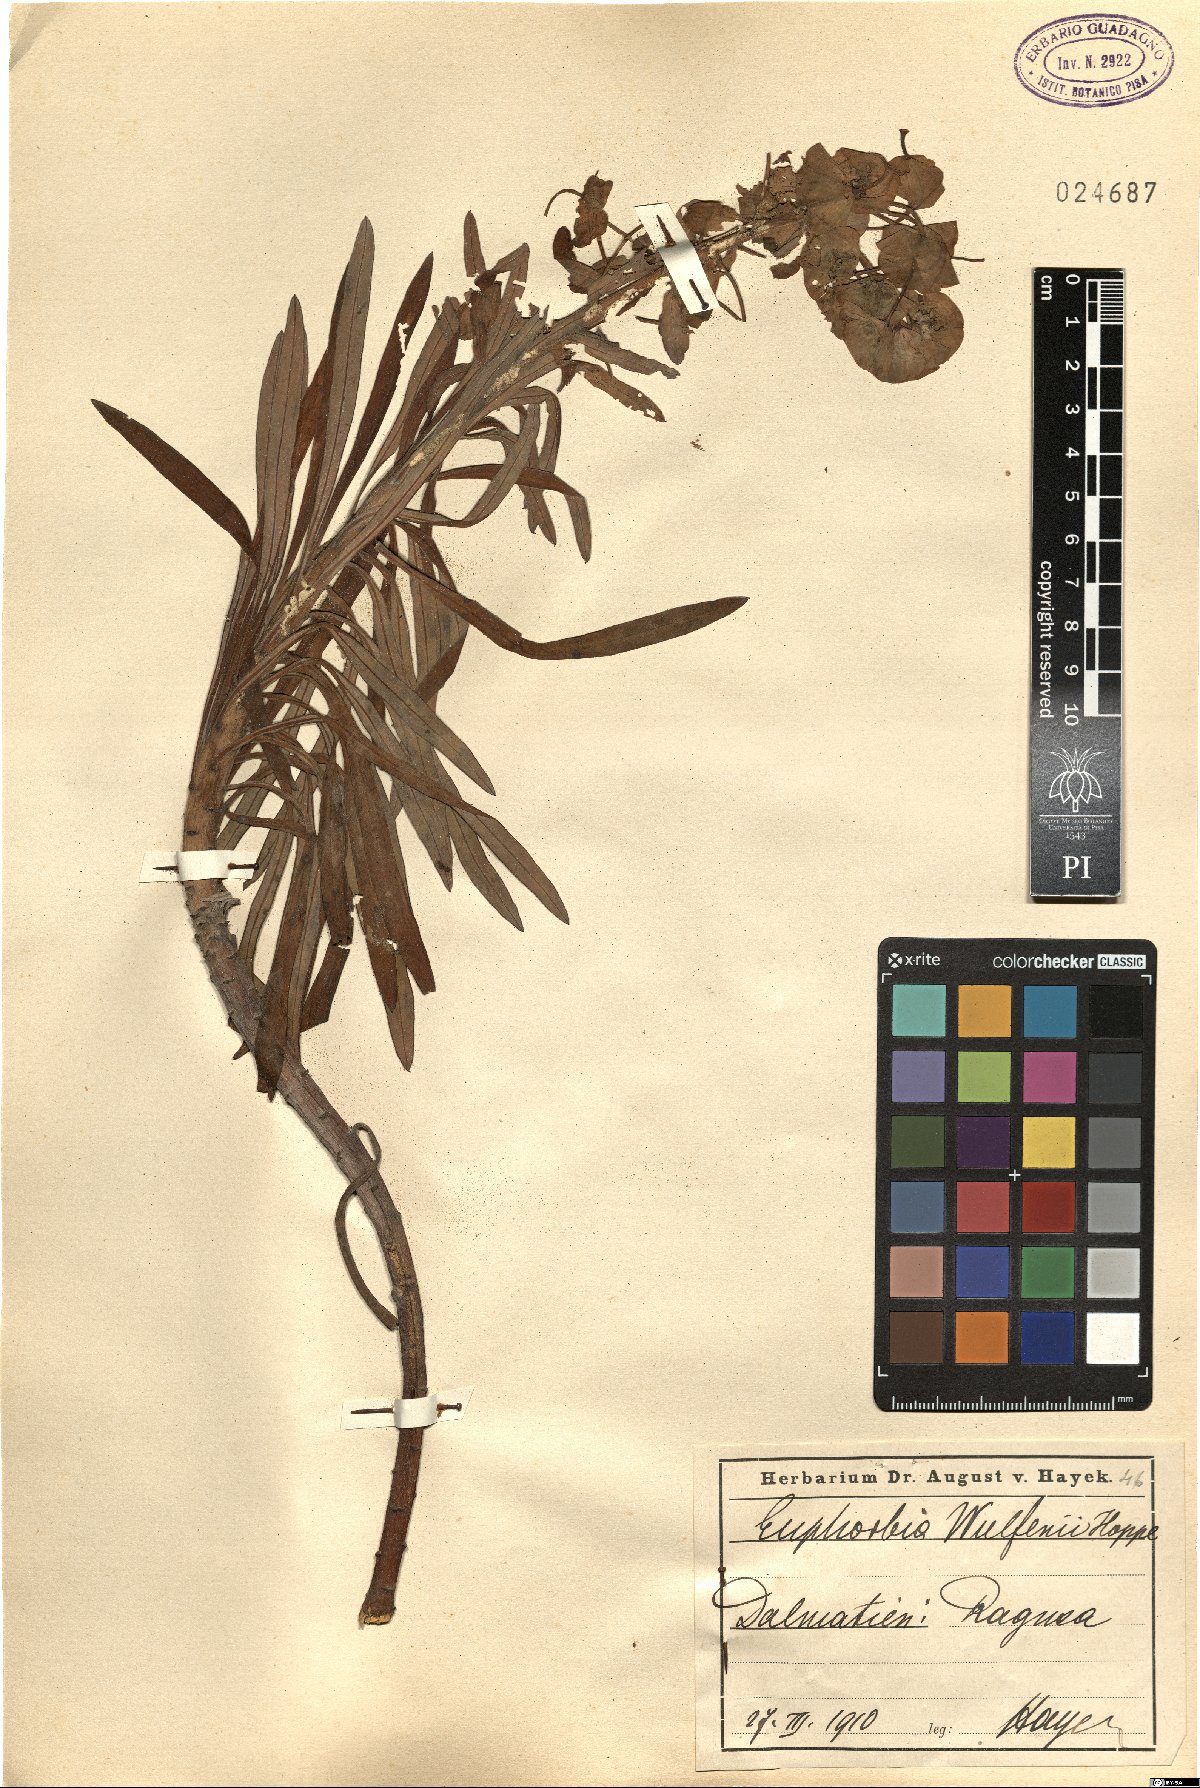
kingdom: Plantae
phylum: Tracheophyta
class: Magnoliopsida
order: Malpighiales
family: Euphorbiaceae
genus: Euphorbia
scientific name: Euphorbia characias
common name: Mediterranean spurge
